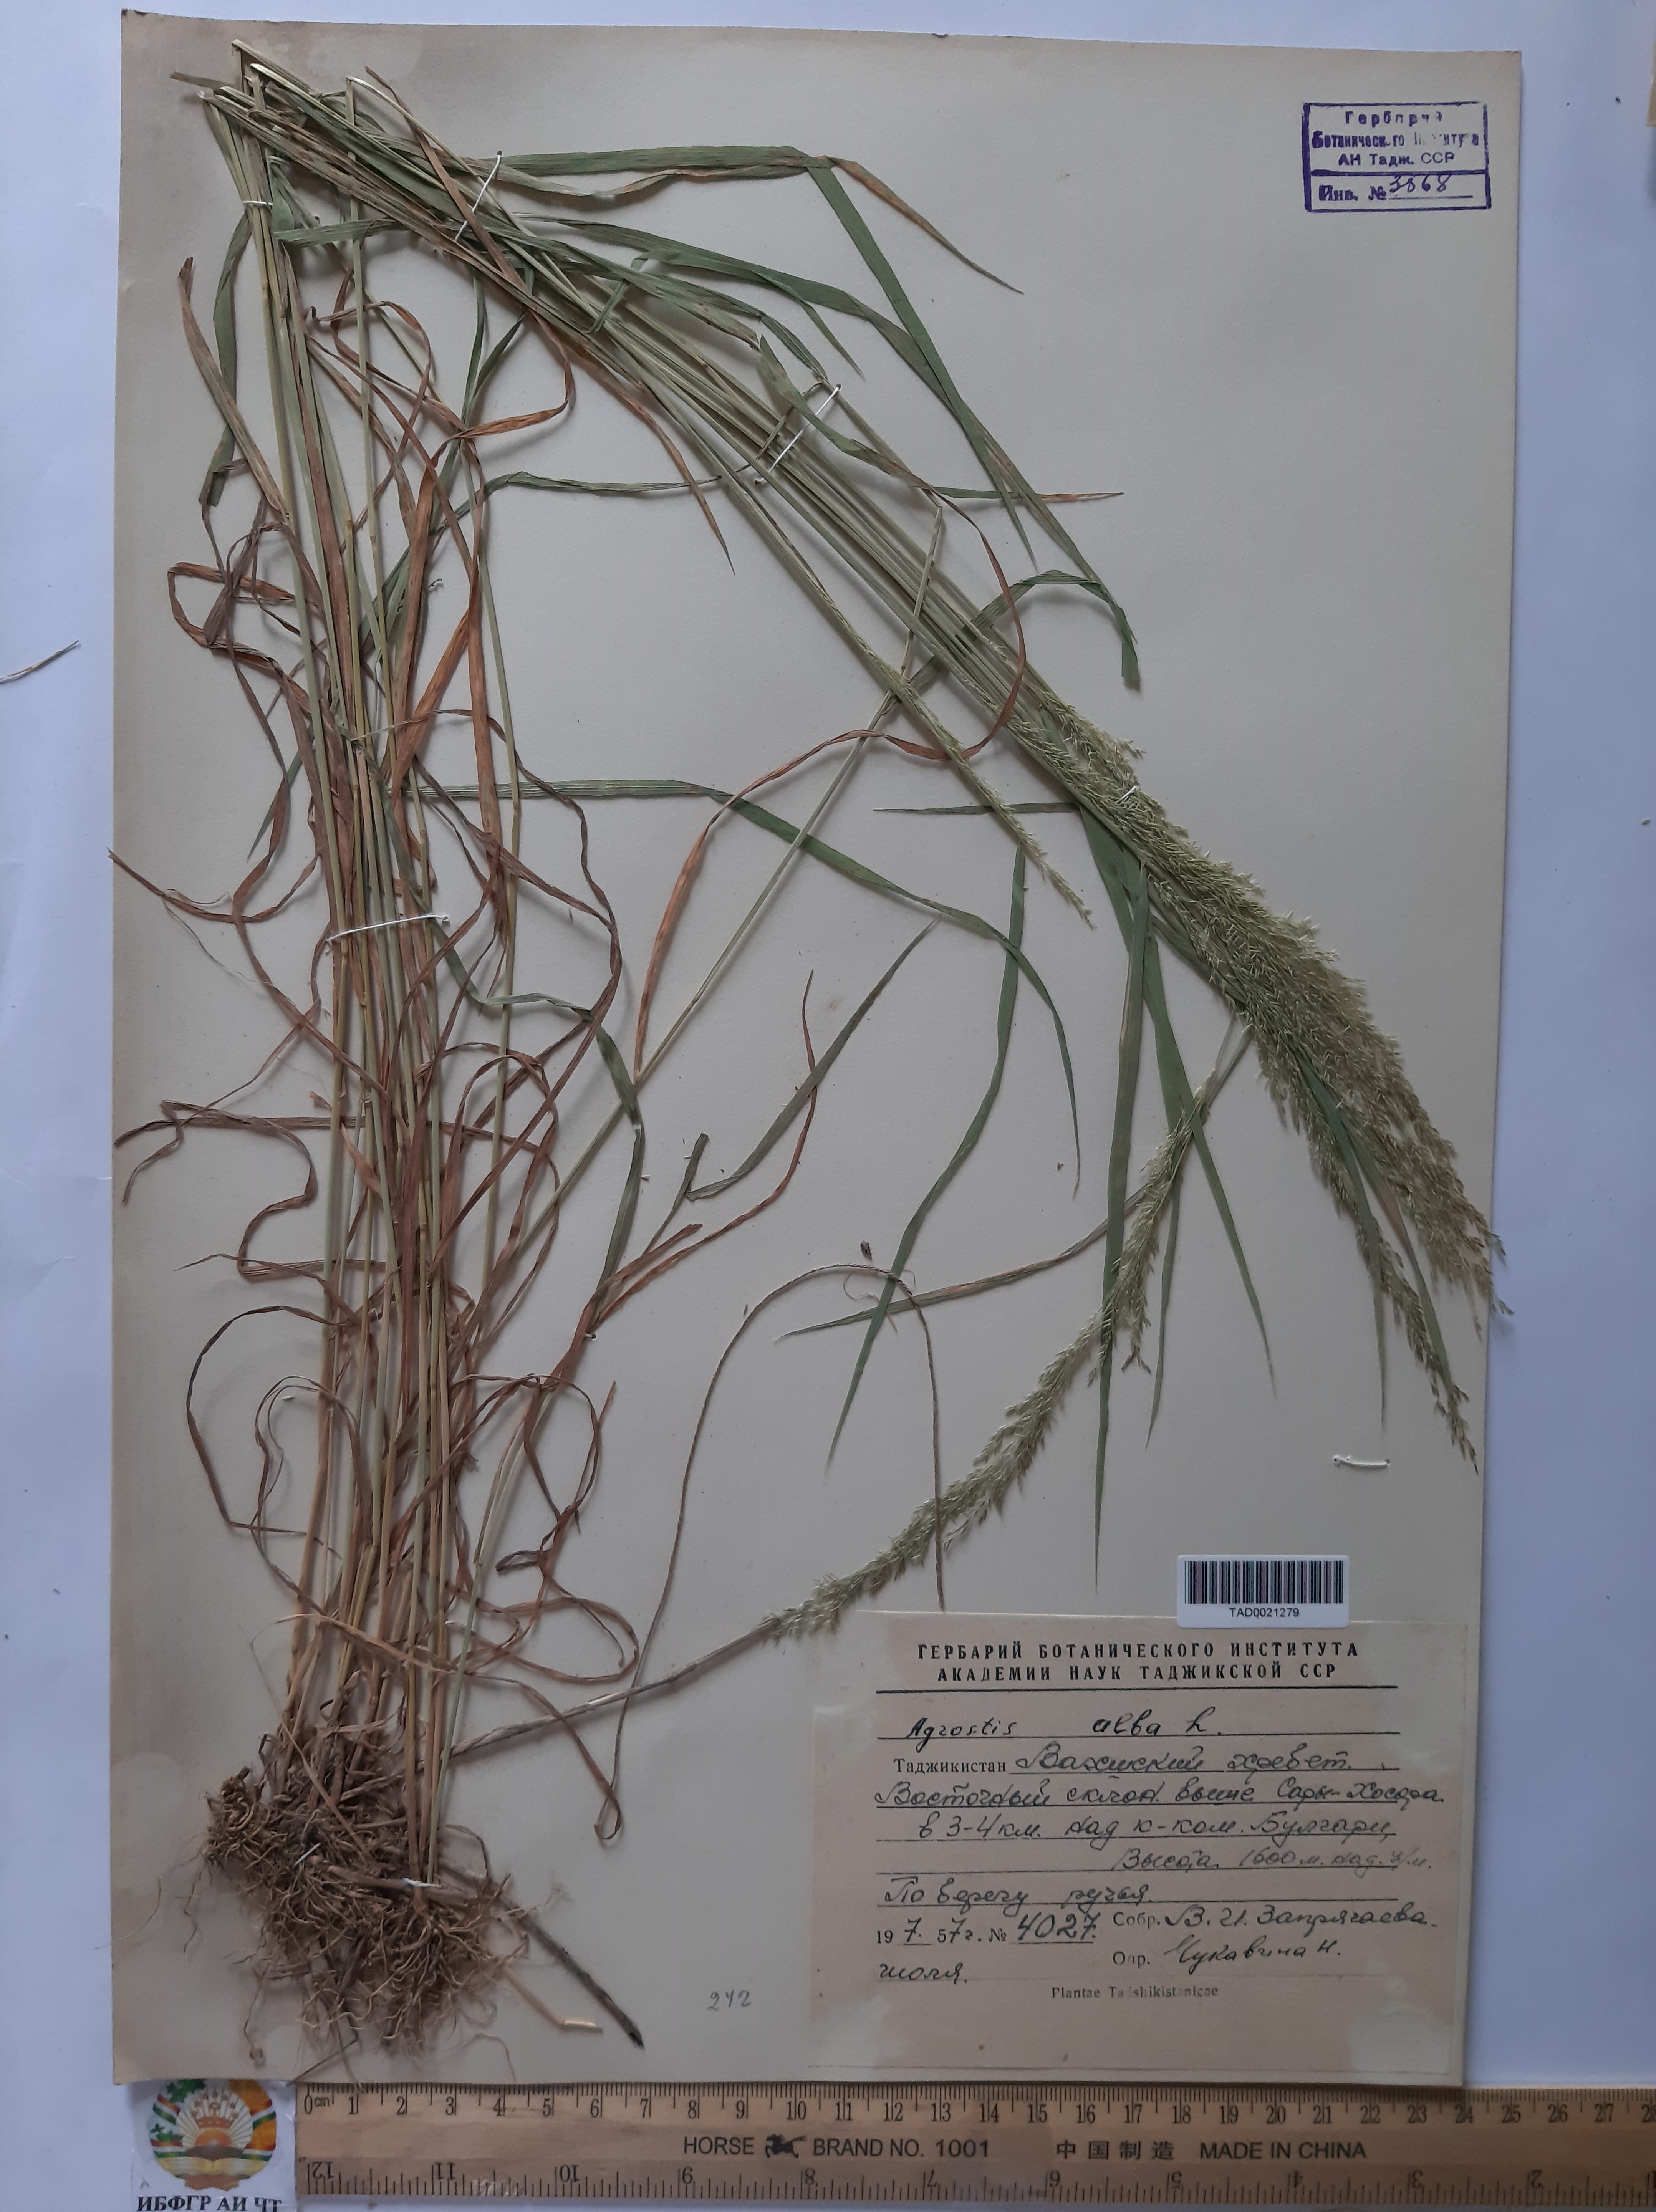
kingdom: Plantae
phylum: Tracheophyta
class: Liliopsida
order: Poales
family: Poaceae
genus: Poa
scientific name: Poa nemoralis
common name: Wood bluegrass
